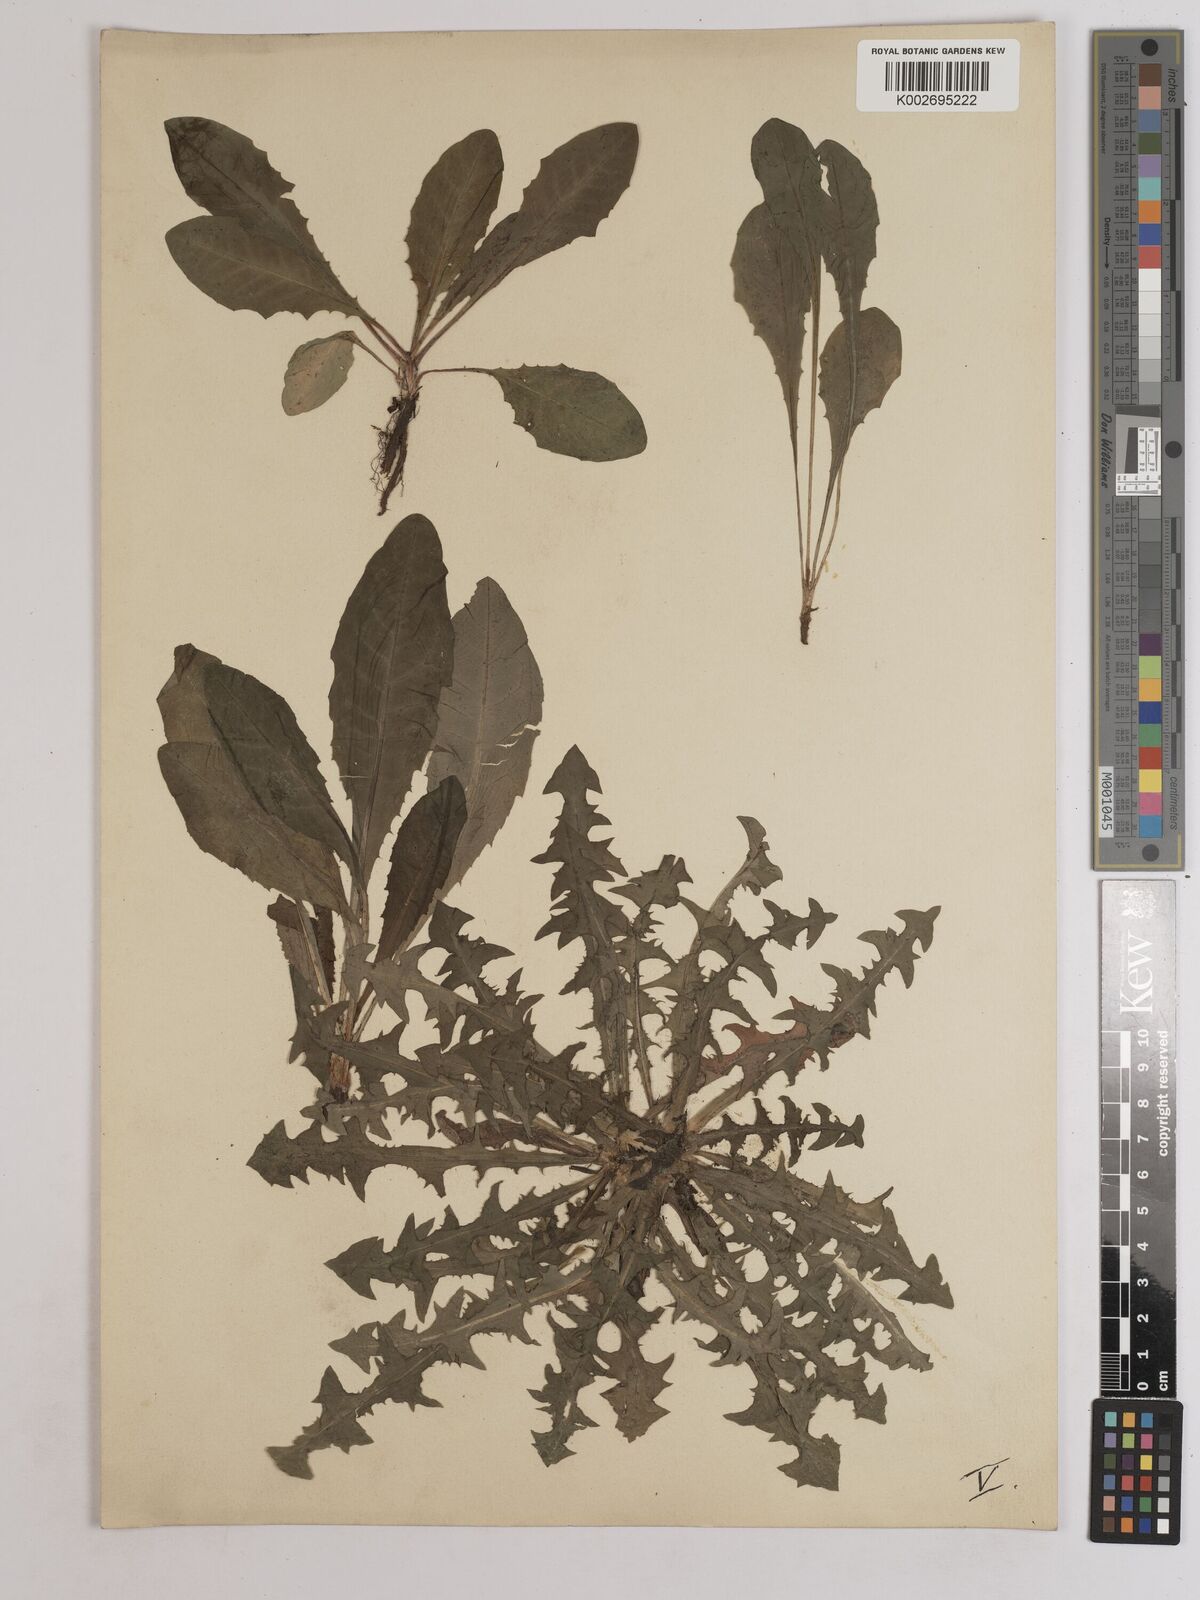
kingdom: Plantae
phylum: Tracheophyta
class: Magnoliopsida
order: Asterales
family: Asteraceae
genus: Taraxacum
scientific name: Taraxacum officinale
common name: Common dandelion
